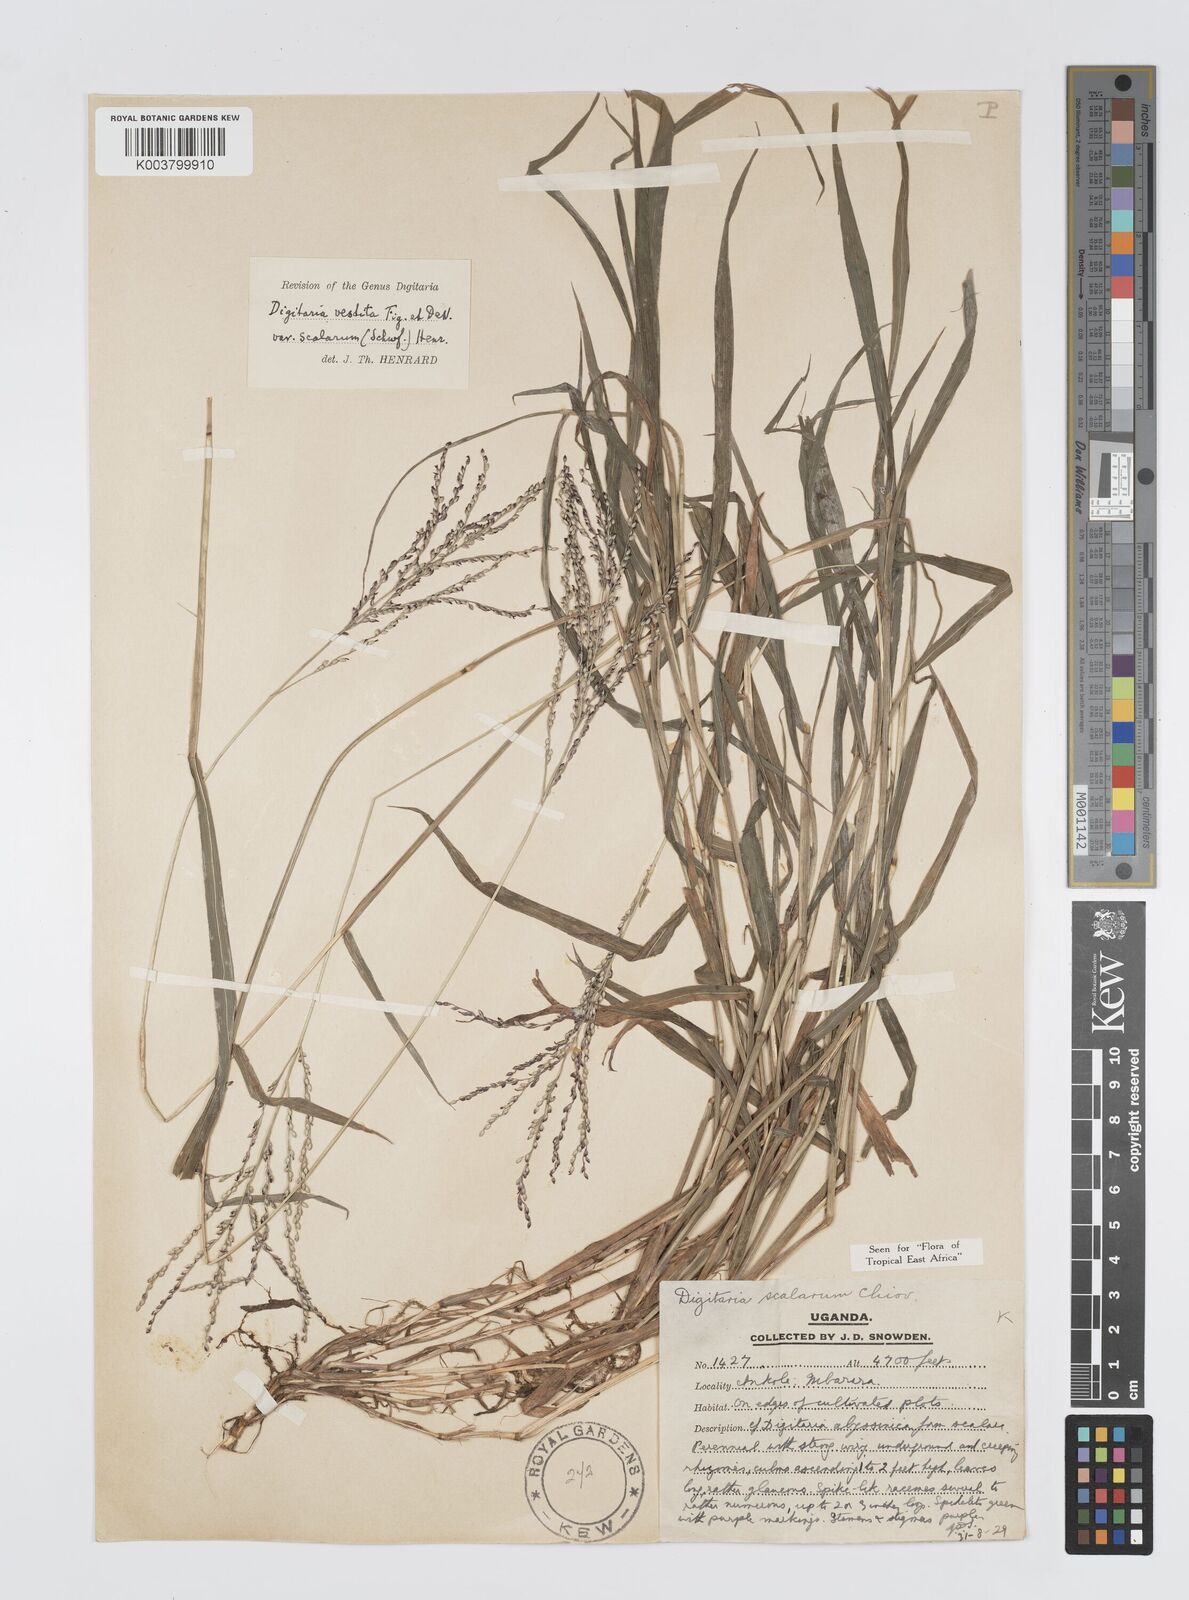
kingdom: Plantae
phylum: Tracheophyta
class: Liliopsida
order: Poales
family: Poaceae
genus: Digitaria
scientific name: Digitaria abyssinica
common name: African couchgrass
